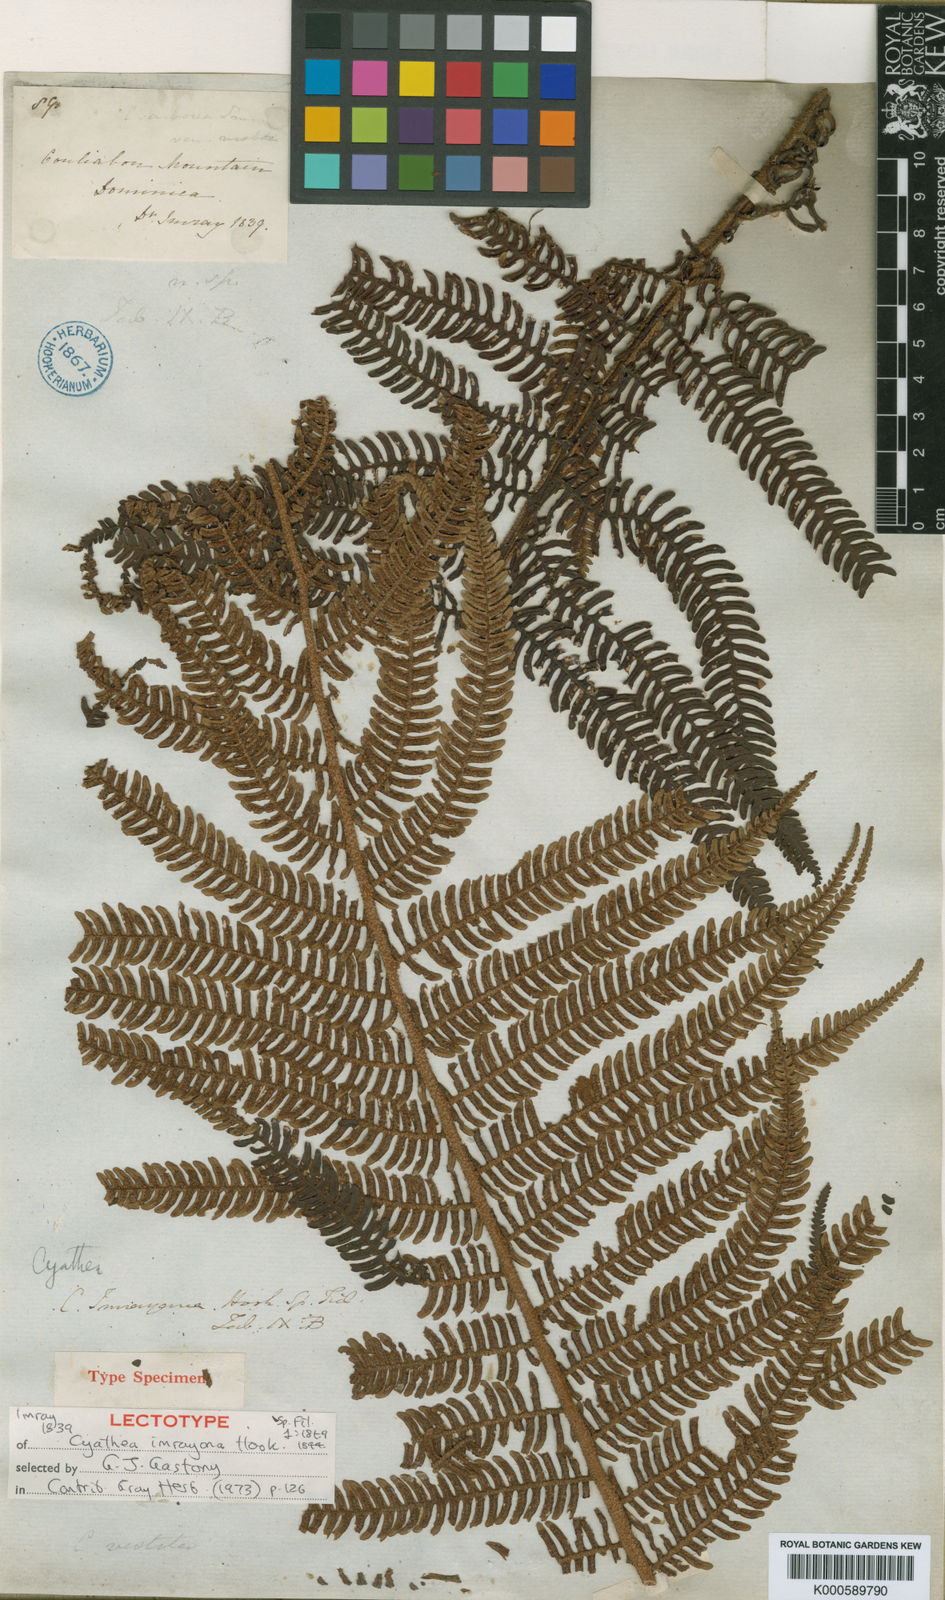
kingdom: Plantae
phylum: Tracheophyta
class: Polypodiopsida
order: Cyatheales
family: Cyatheaceae
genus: Alsophila
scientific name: Alsophila imrayana
